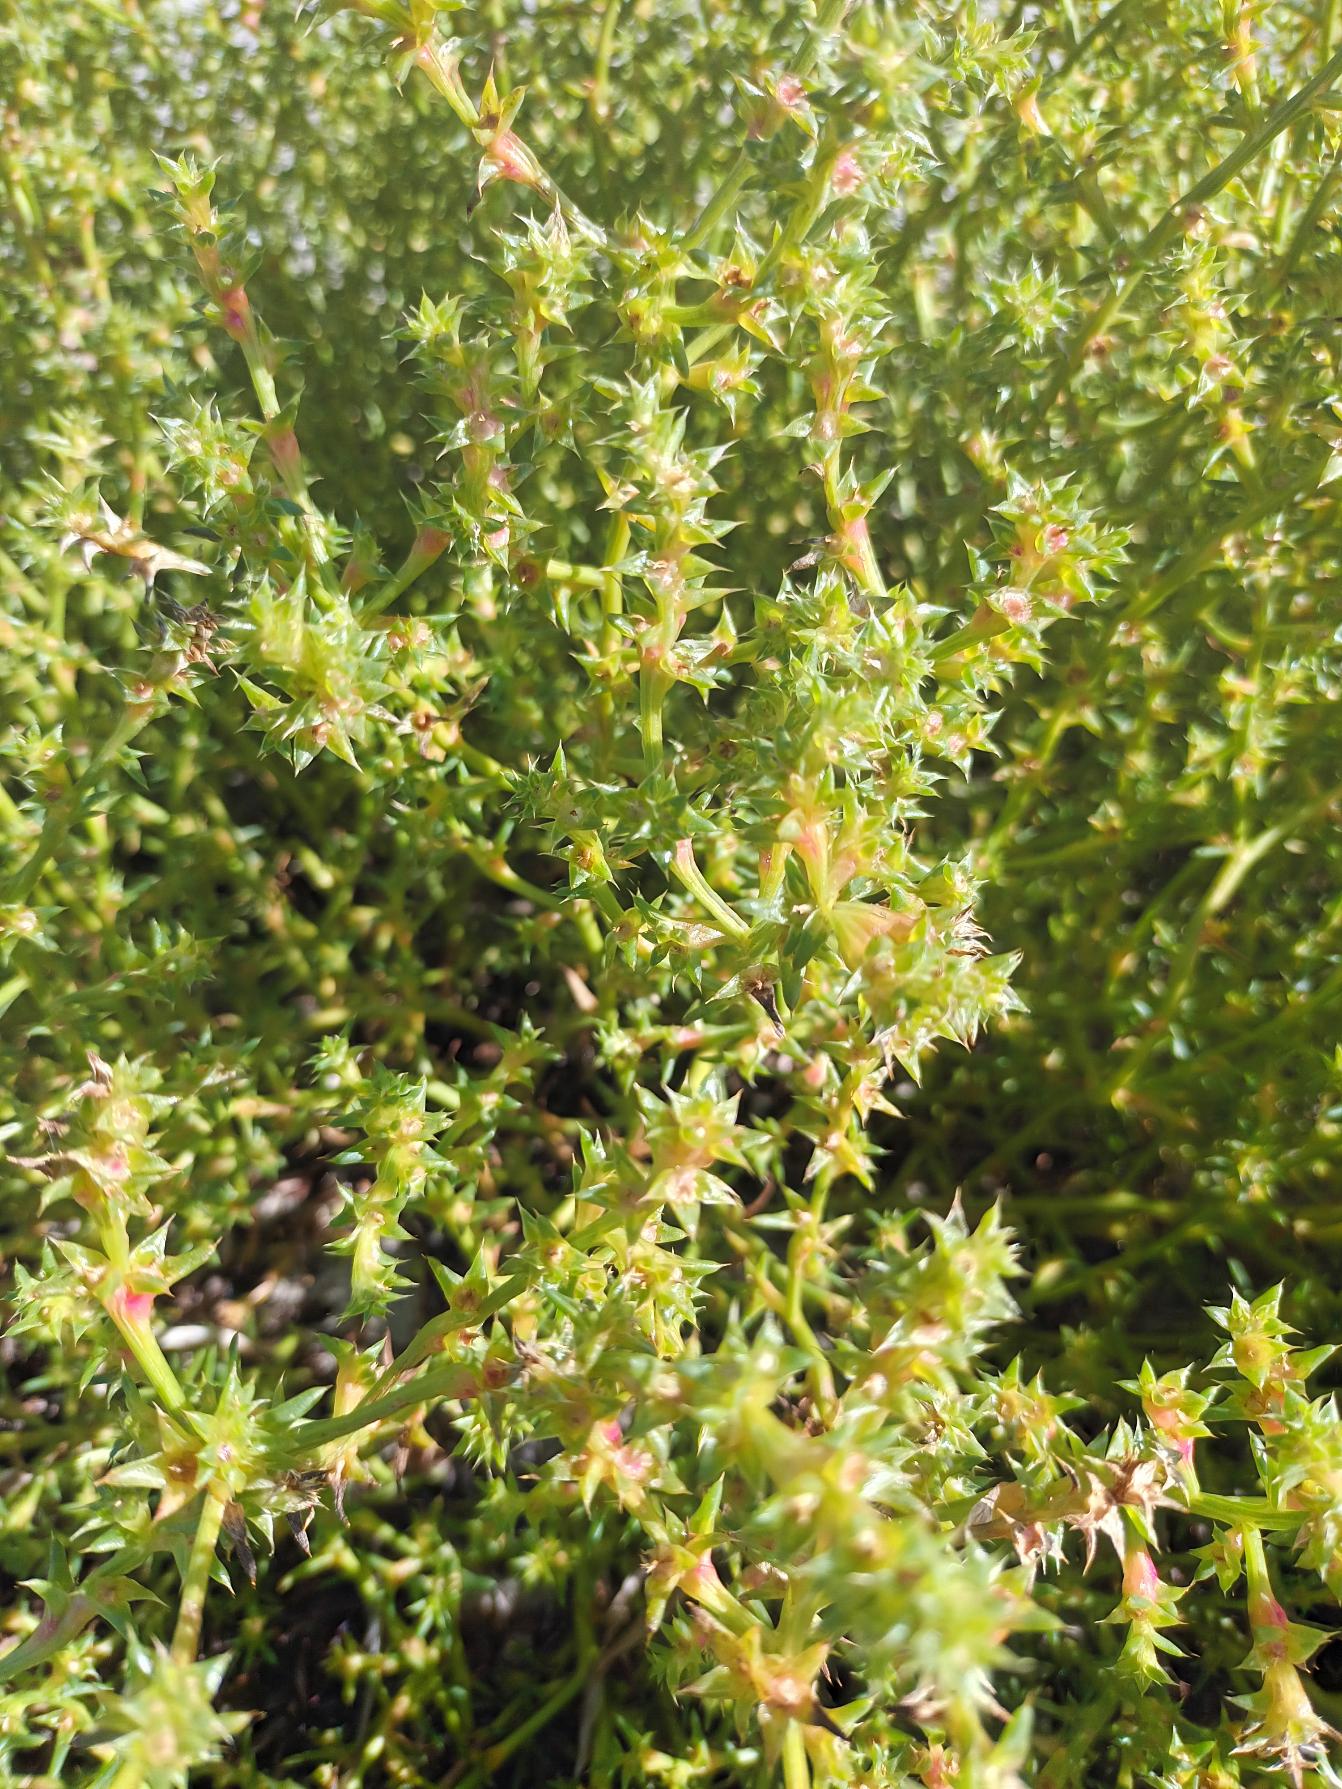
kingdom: Plantae
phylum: Tracheophyta
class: Magnoliopsida
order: Caryophyllales
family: Amaranthaceae
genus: Salsola
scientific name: Salsola kali
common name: Sodaurt
